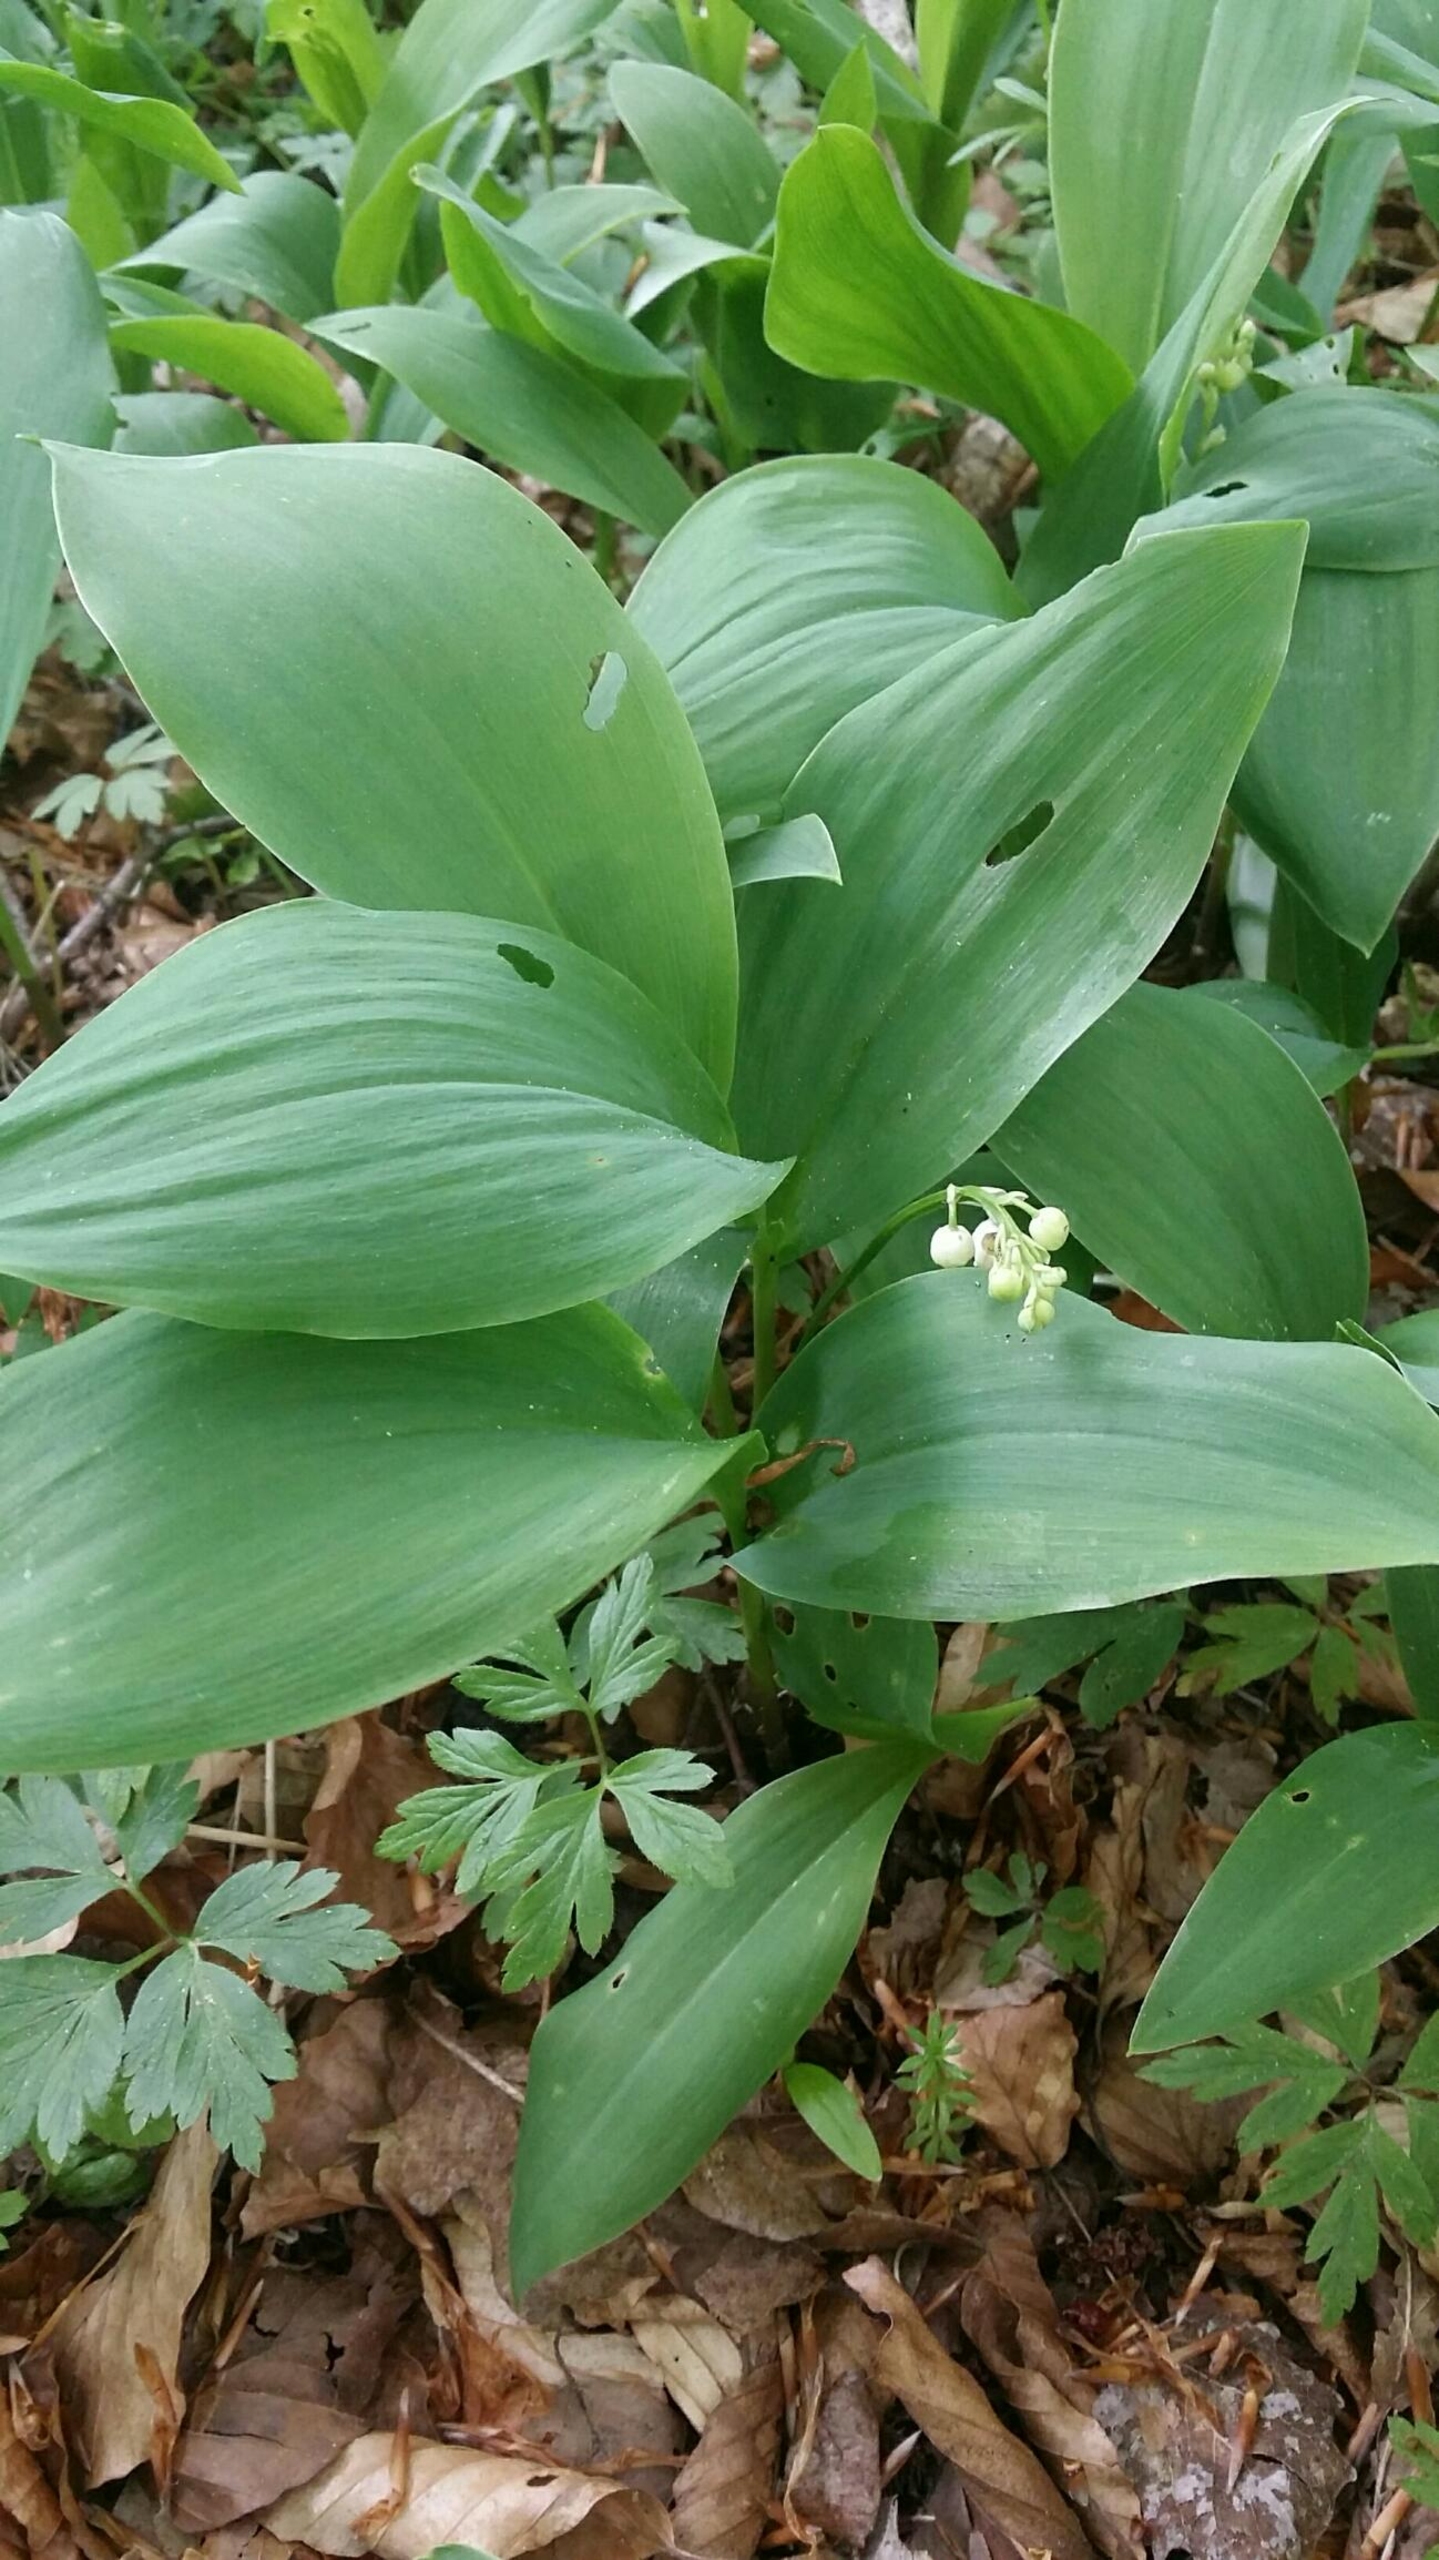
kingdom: Plantae
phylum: Tracheophyta
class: Liliopsida
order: Asparagales
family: Asparagaceae
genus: Convallaria
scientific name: Convallaria majalis
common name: Liljekonval
